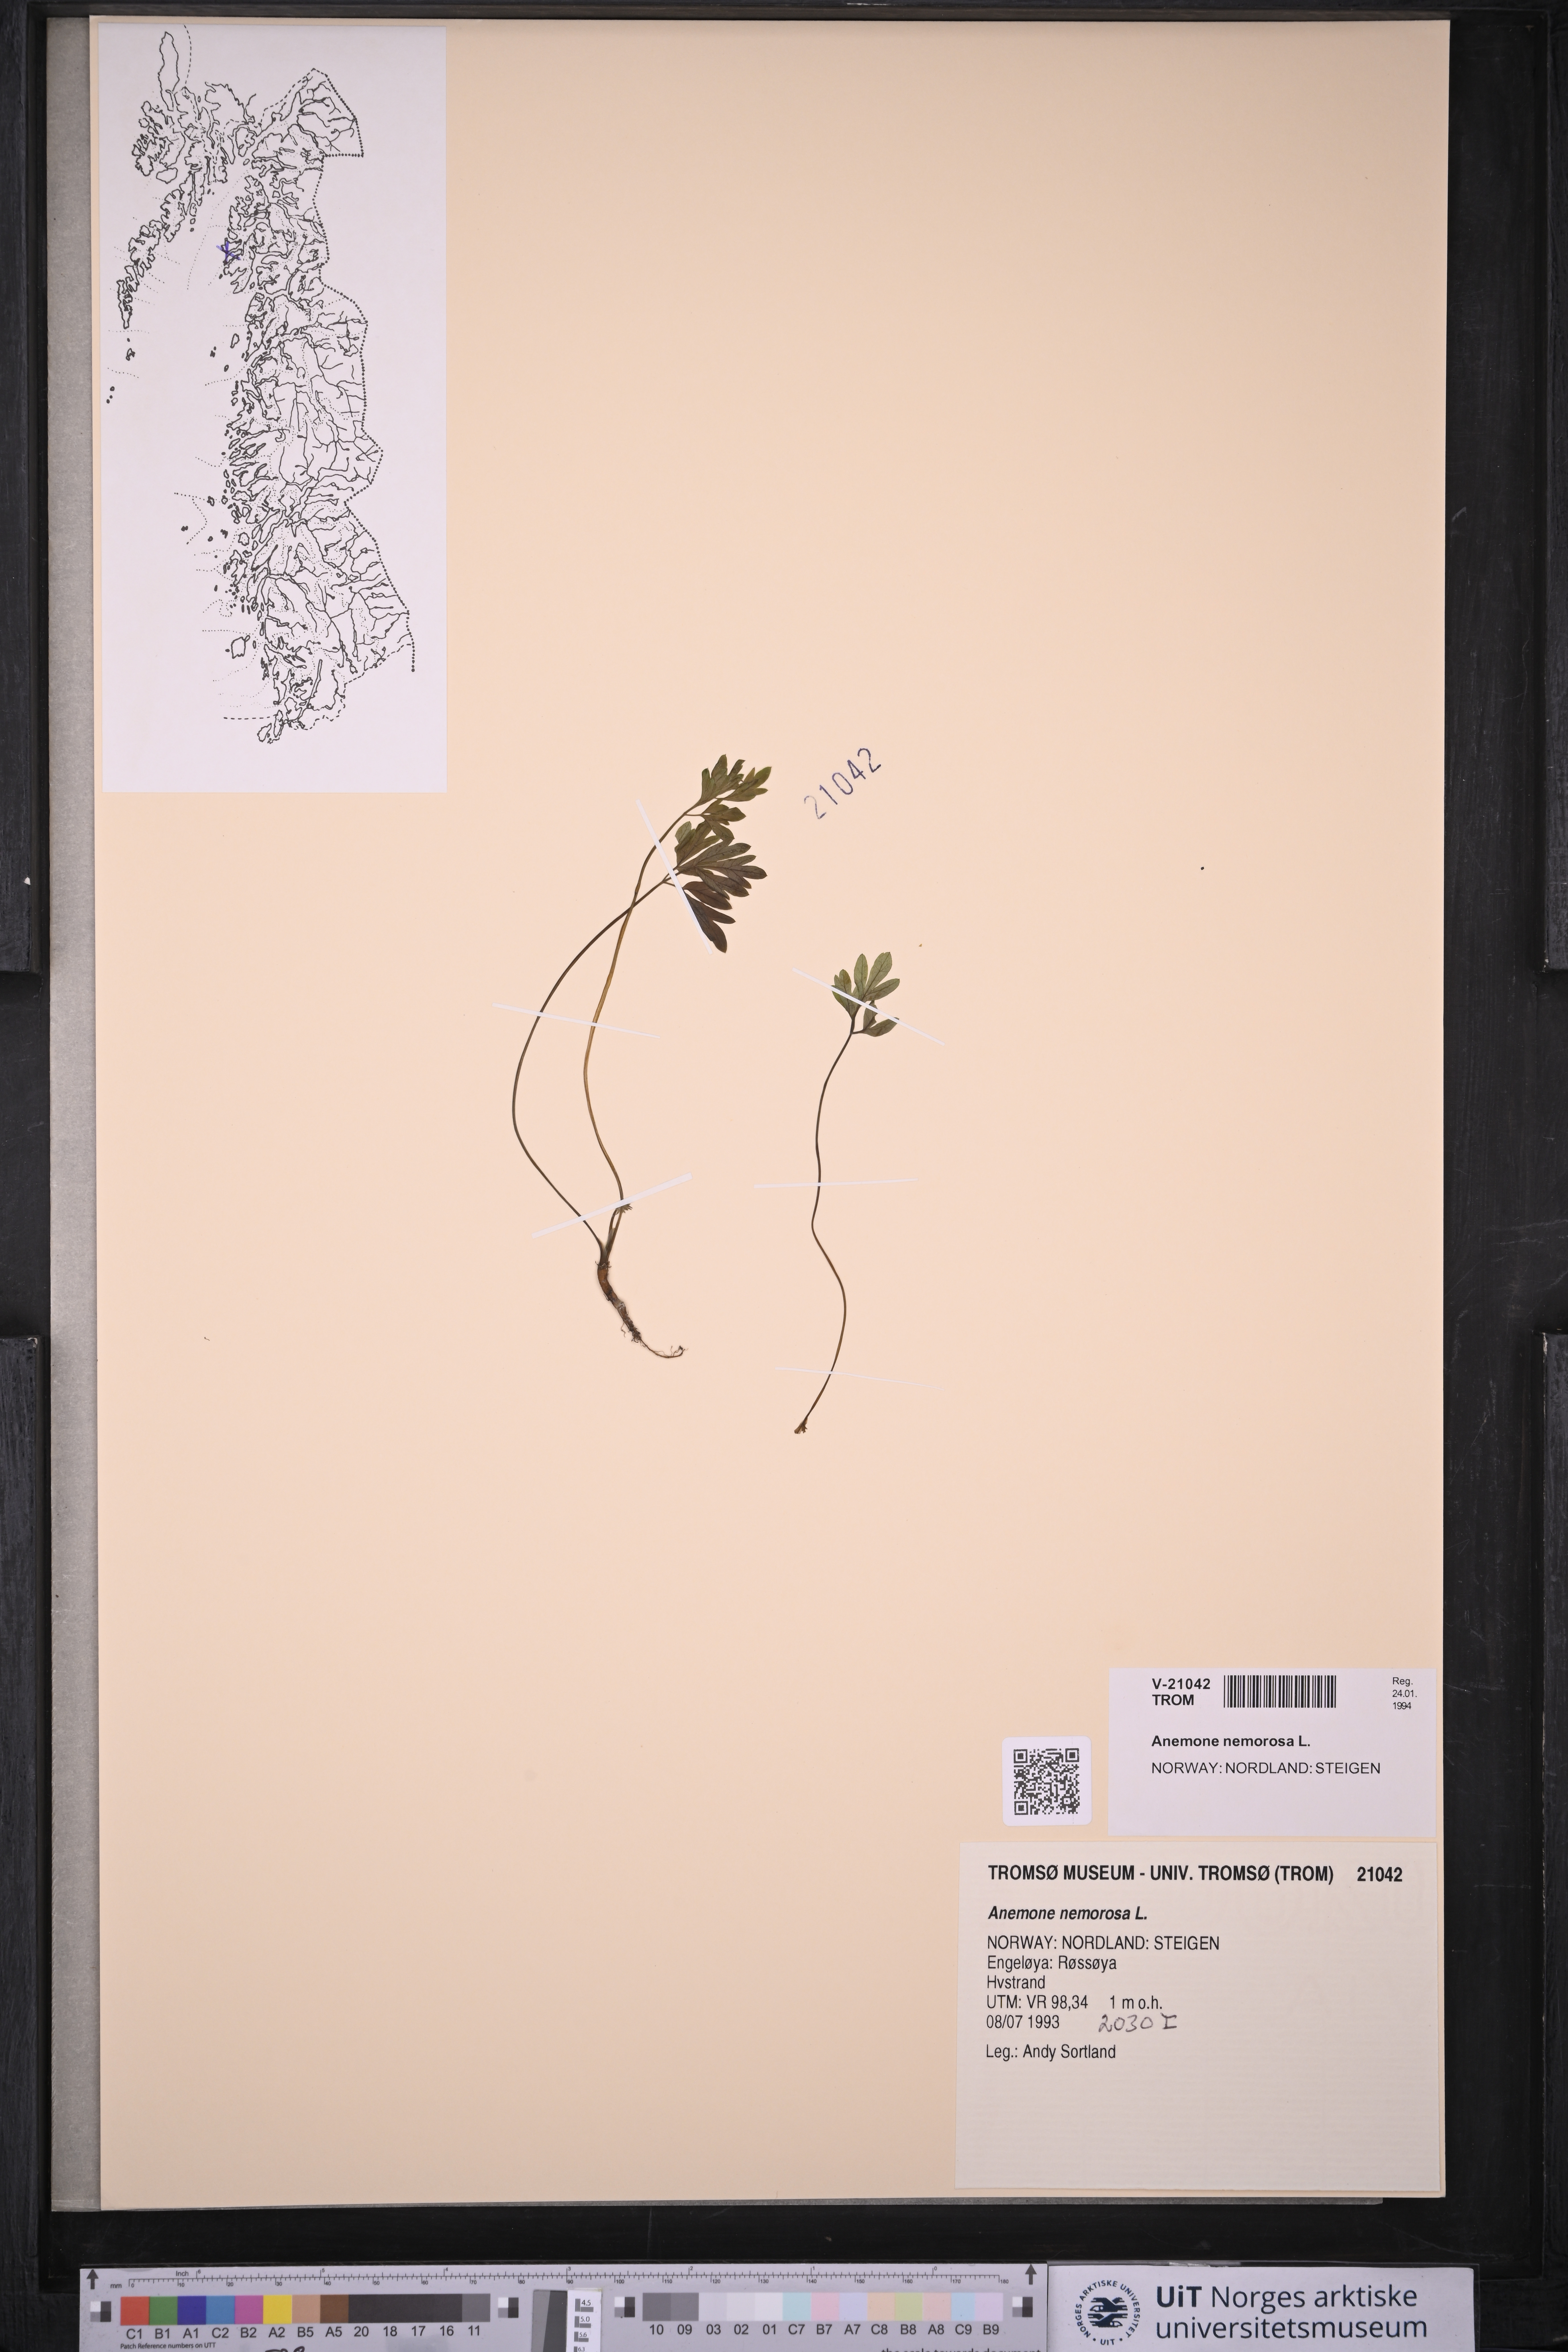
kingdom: Plantae
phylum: Tracheophyta
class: Magnoliopsida
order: Ranunculales
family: Ranunculaceae
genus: Anemone
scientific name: Anemone nemorosa
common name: Wood anemone
